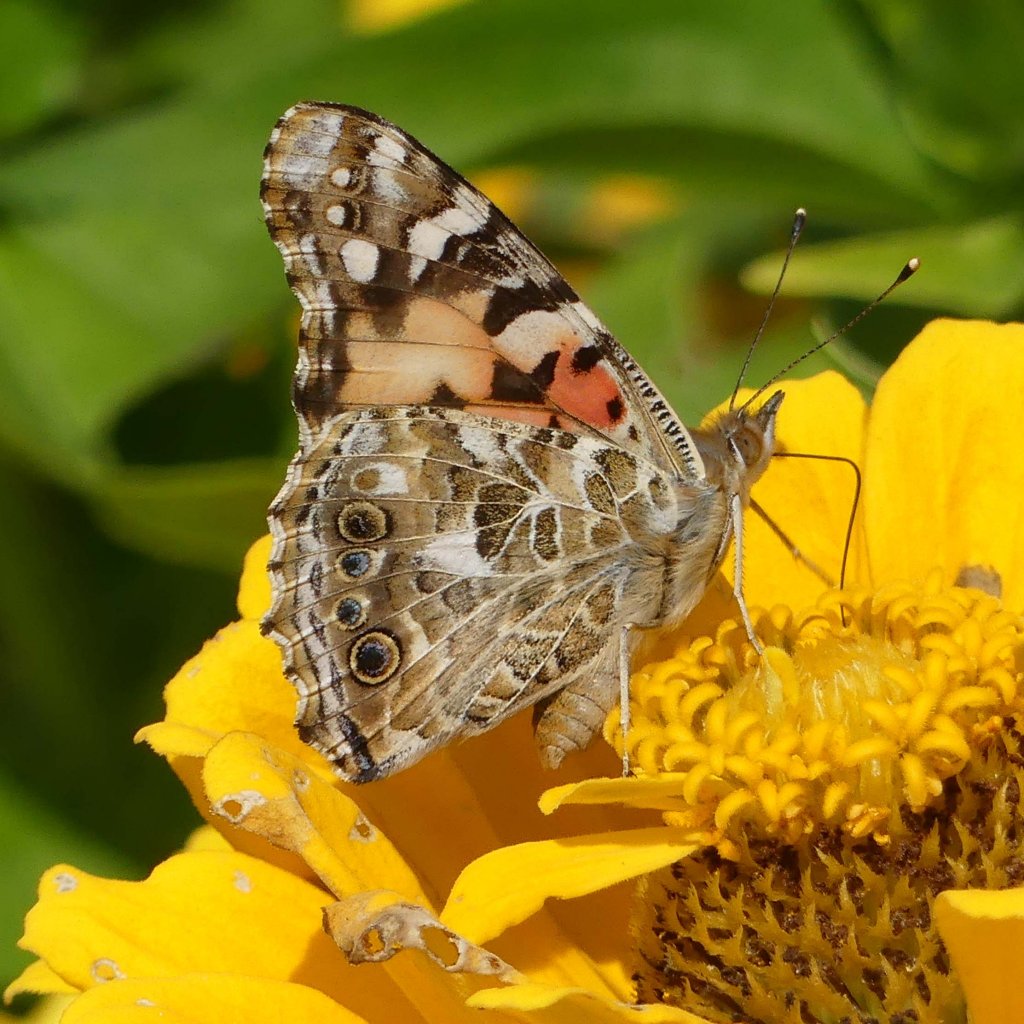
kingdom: Animalia
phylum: Arthropoda
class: Insecta
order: Lepidoptera
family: Nymphalidae
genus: Vanessa
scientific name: Vanessa cardui
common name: Painted Lady
